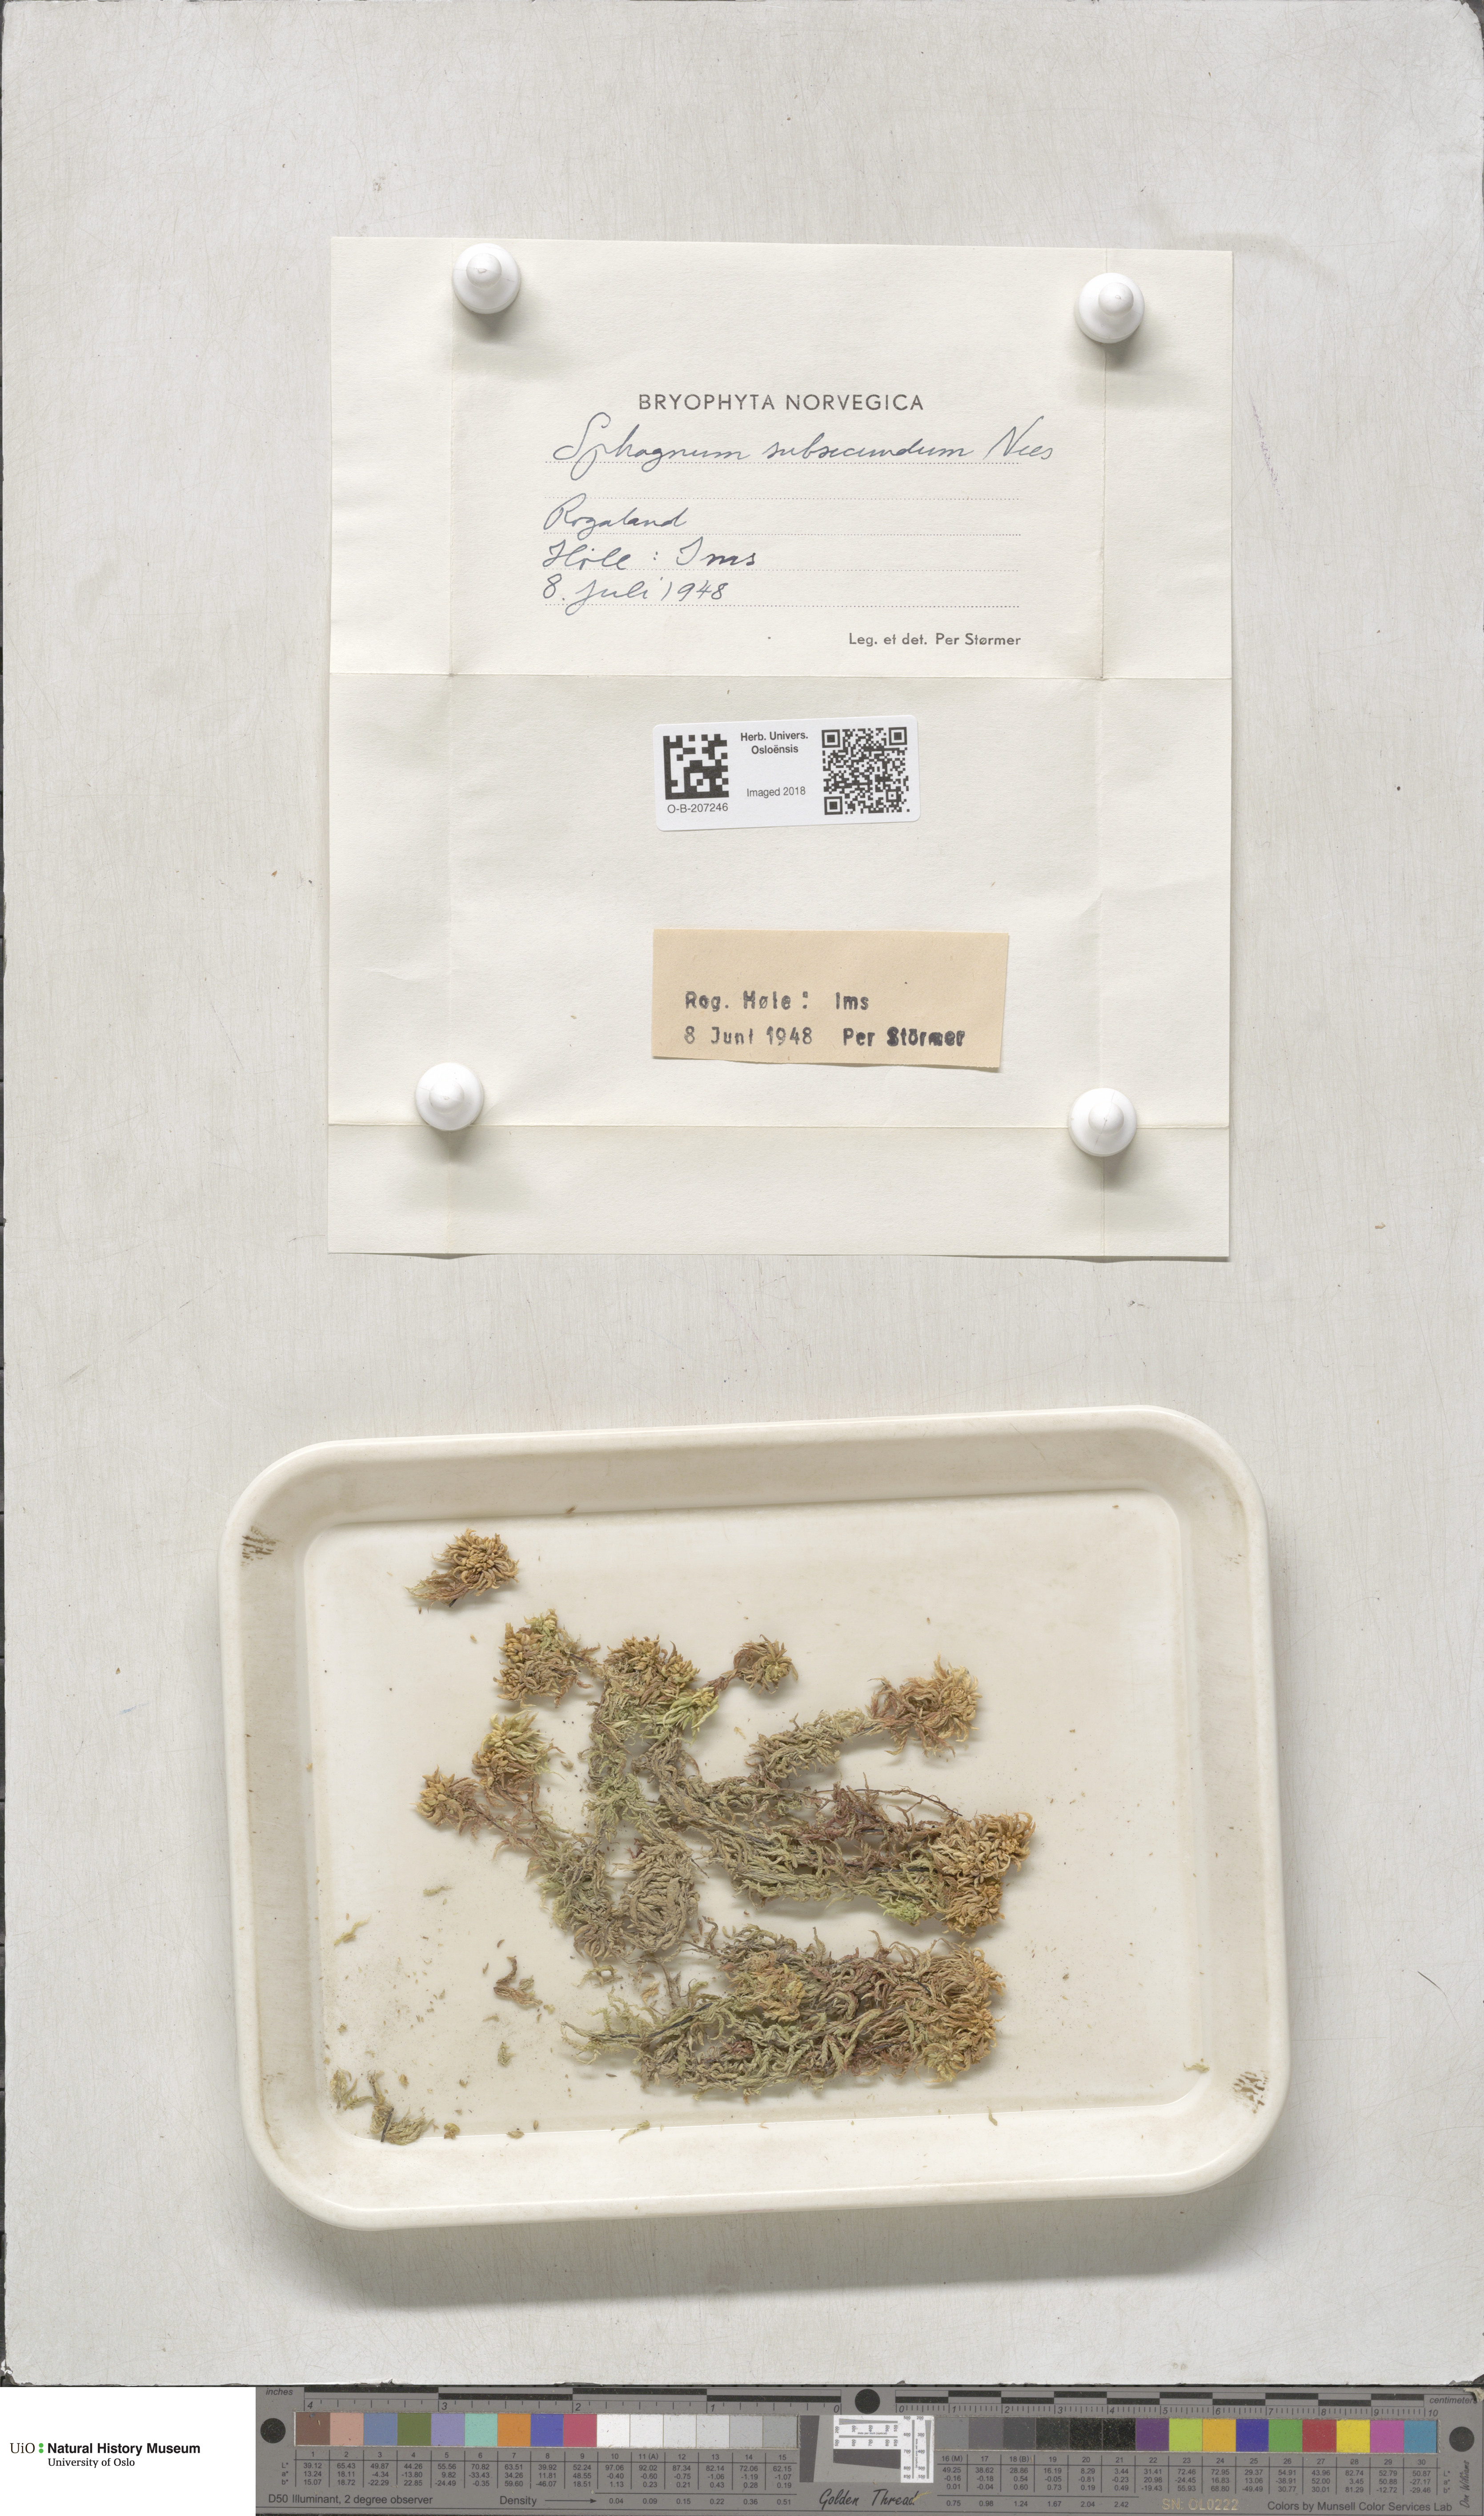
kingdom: Plantae
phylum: Bryophyta
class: Sphagnopsida
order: Sphagnales
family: Sphagnaceae
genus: Sphagnum
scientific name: Sphagnum subsecundum
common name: Orange peat moss
